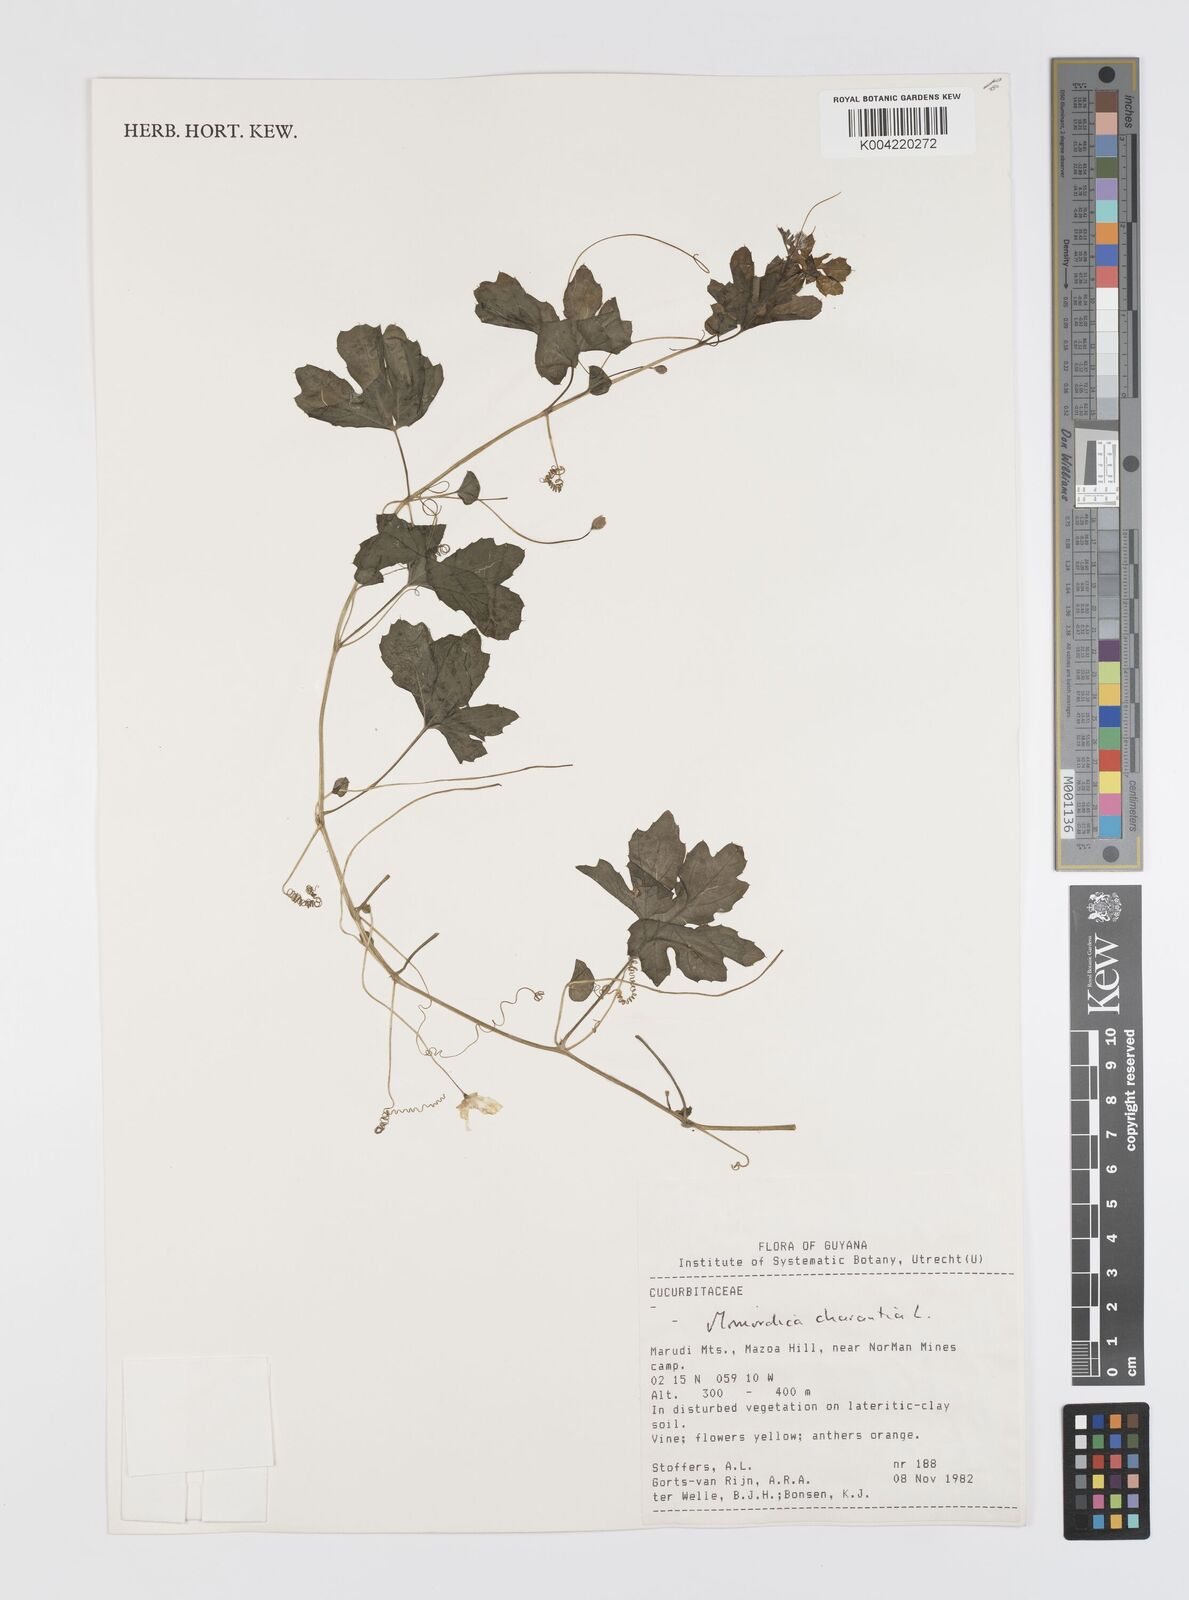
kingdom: Plantae
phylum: Tracheophyta
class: Magnoliopsida
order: Cucurbitales
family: Cucurbitaceae
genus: Momordica
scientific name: Momordica charantia
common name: Balsampear
